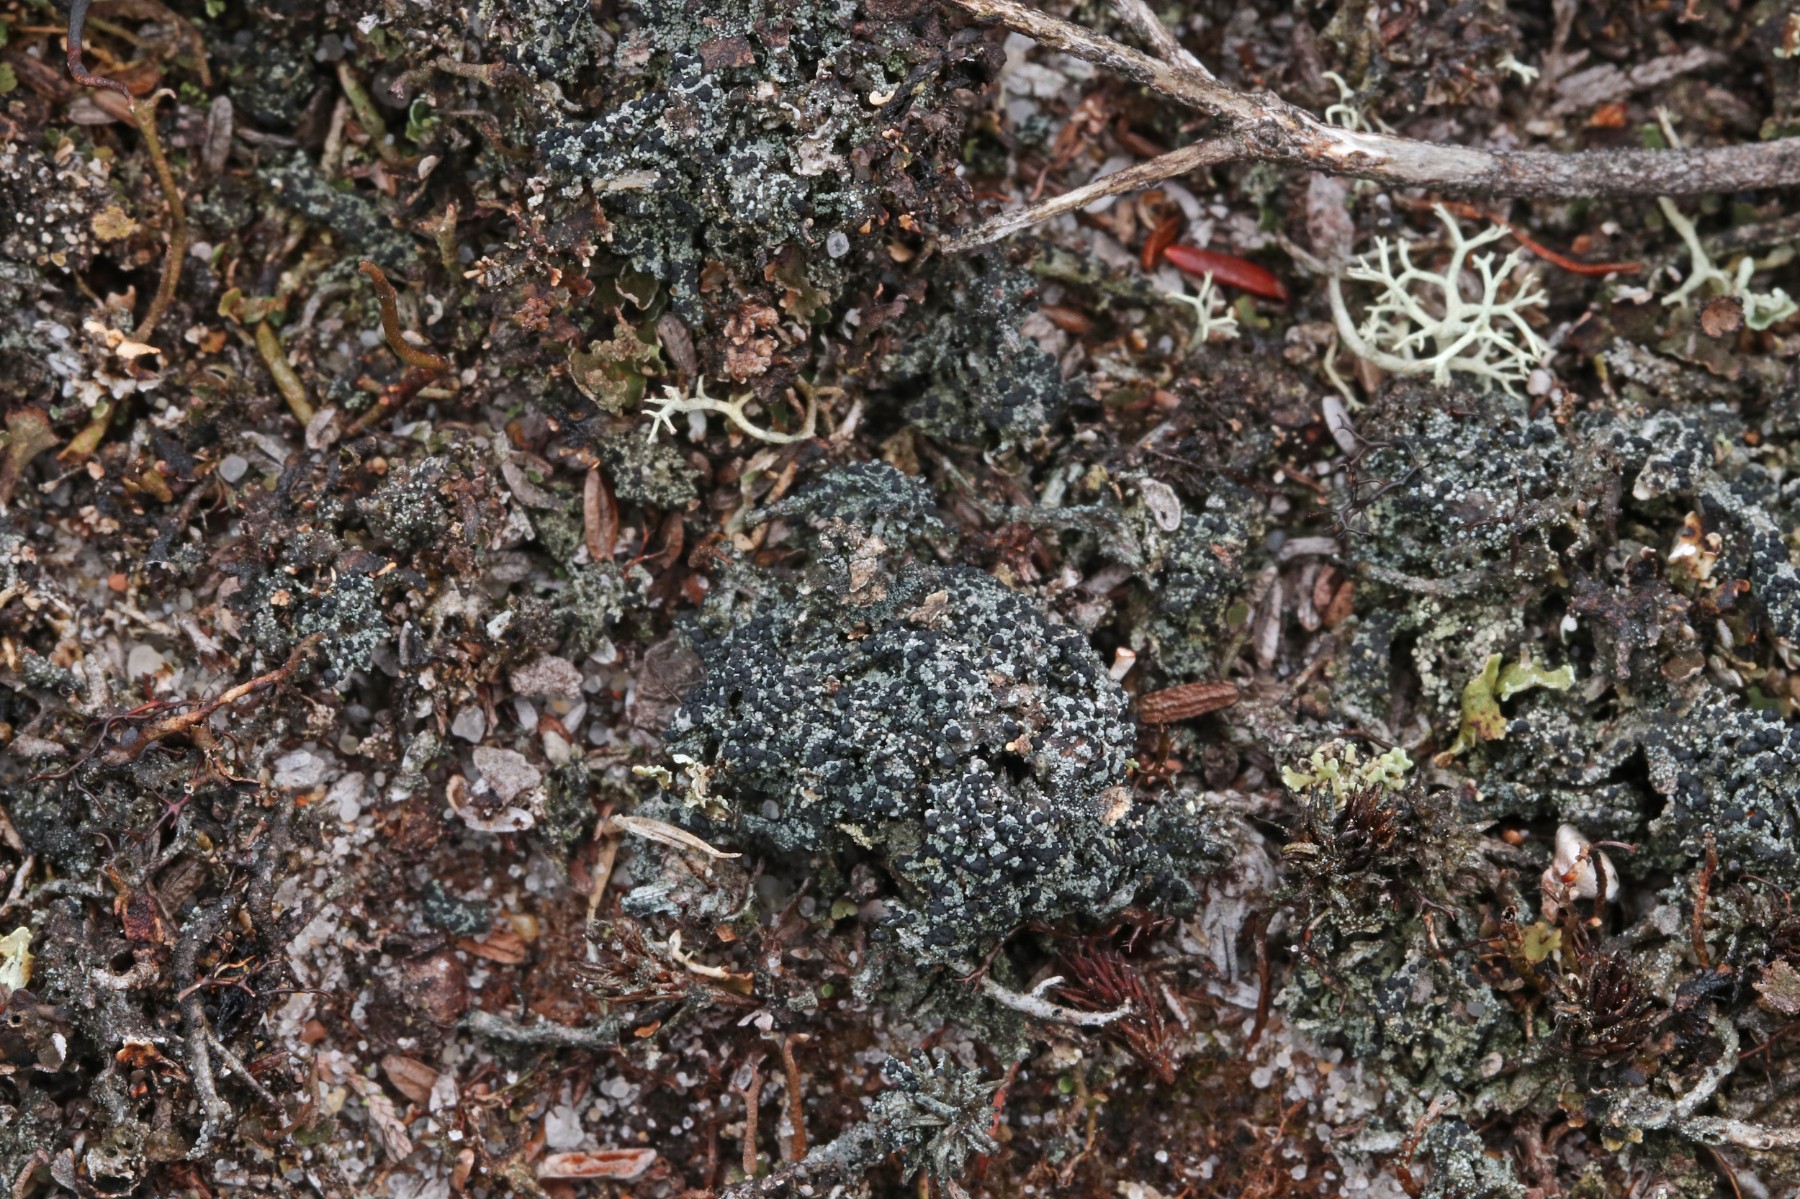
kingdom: Fungi
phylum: Ascomycota
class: Lecanoromycetes
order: Lecanorales
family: Byssolomataceae
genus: Micarea
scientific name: Micarea lignaria
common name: tørve-knaplav
